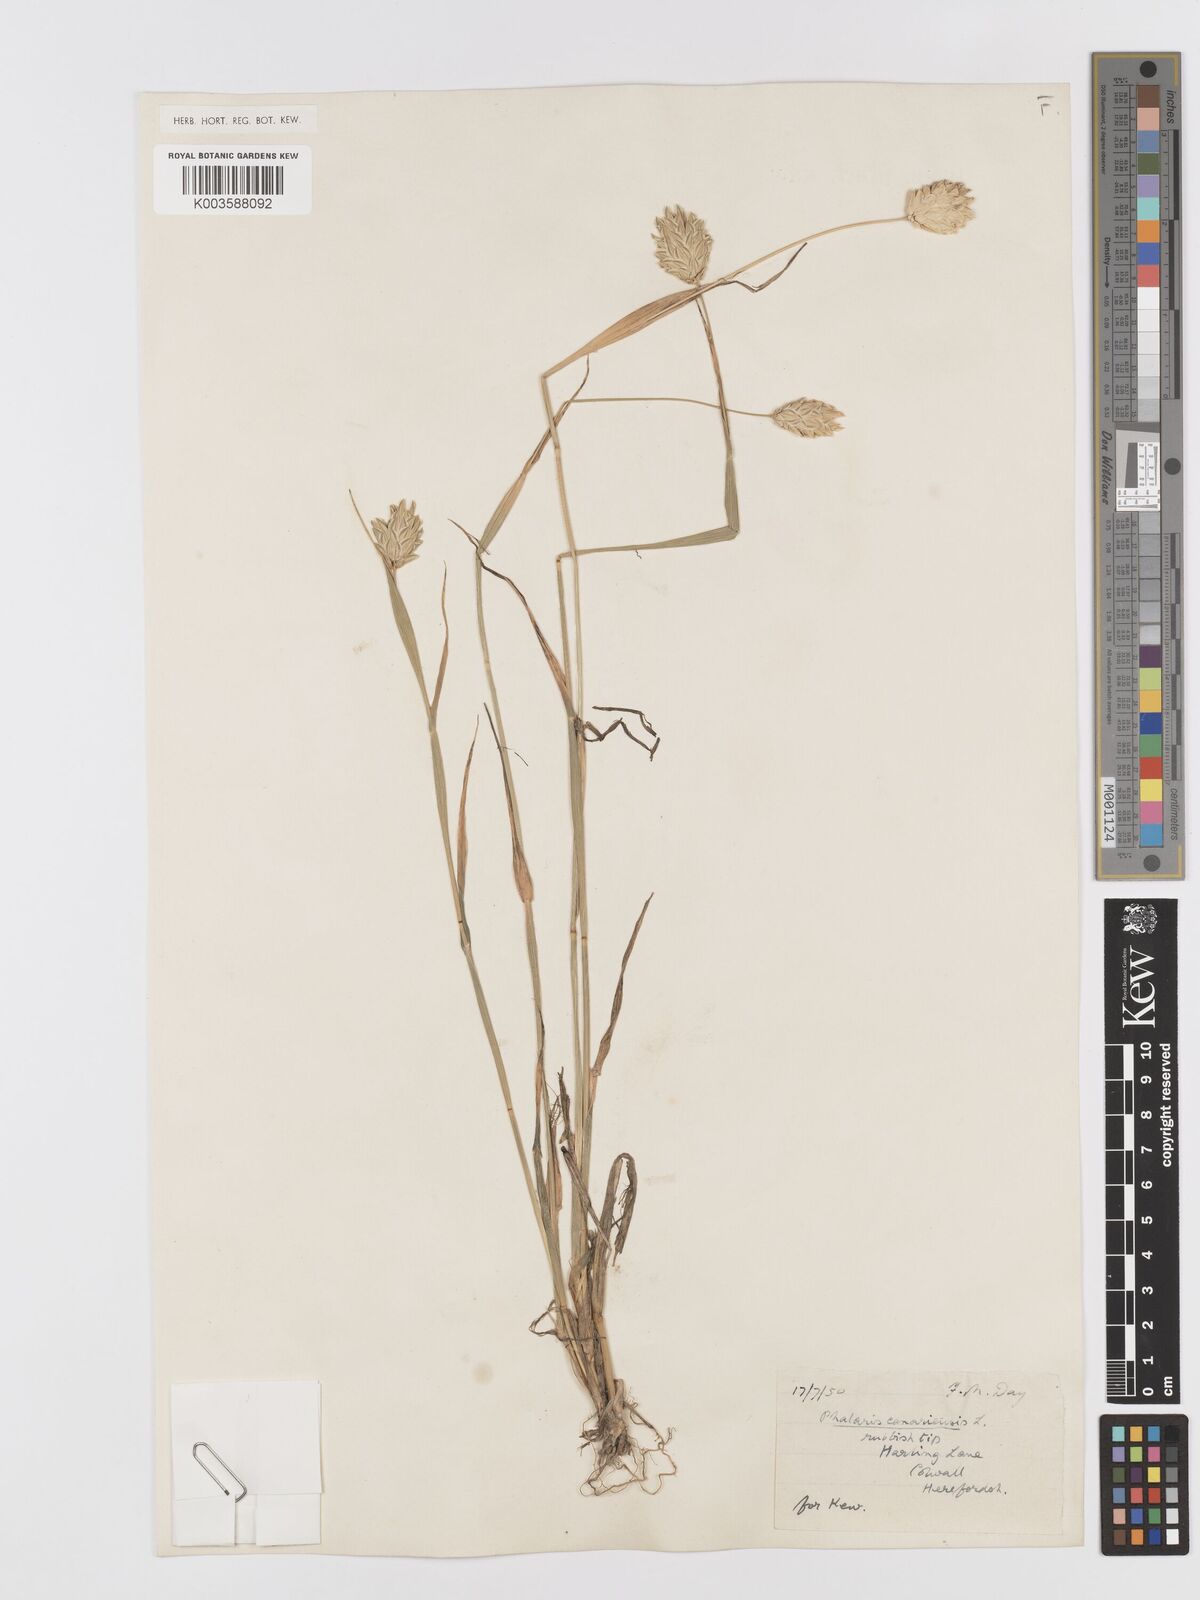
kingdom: Plantae
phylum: Tracheophyta
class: Liliopsida
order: Poales
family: Poaceae
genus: Phalaris
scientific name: Phalaris canariensis
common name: Annual canarygrass
